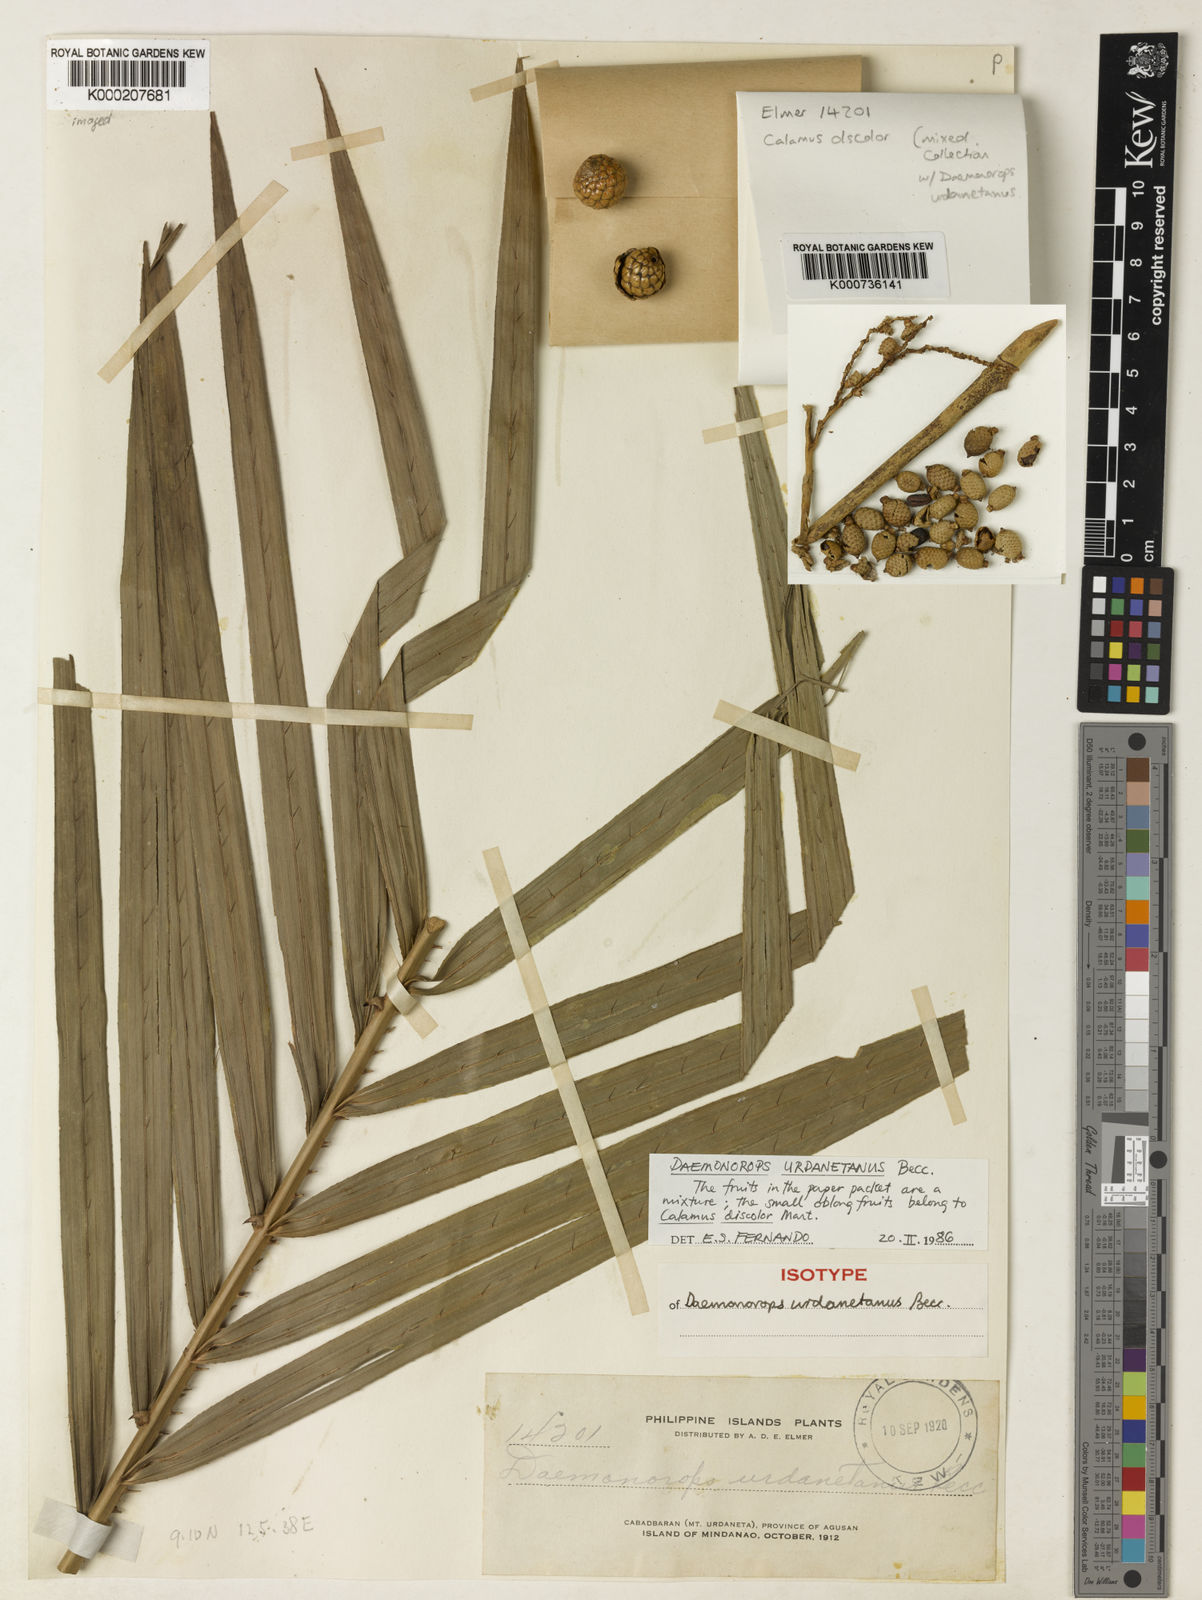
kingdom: Plantae
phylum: Tracheophyta
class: Liliopsida
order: Arecales
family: Arecaceae
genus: Calamus
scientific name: Calamus loherianus
